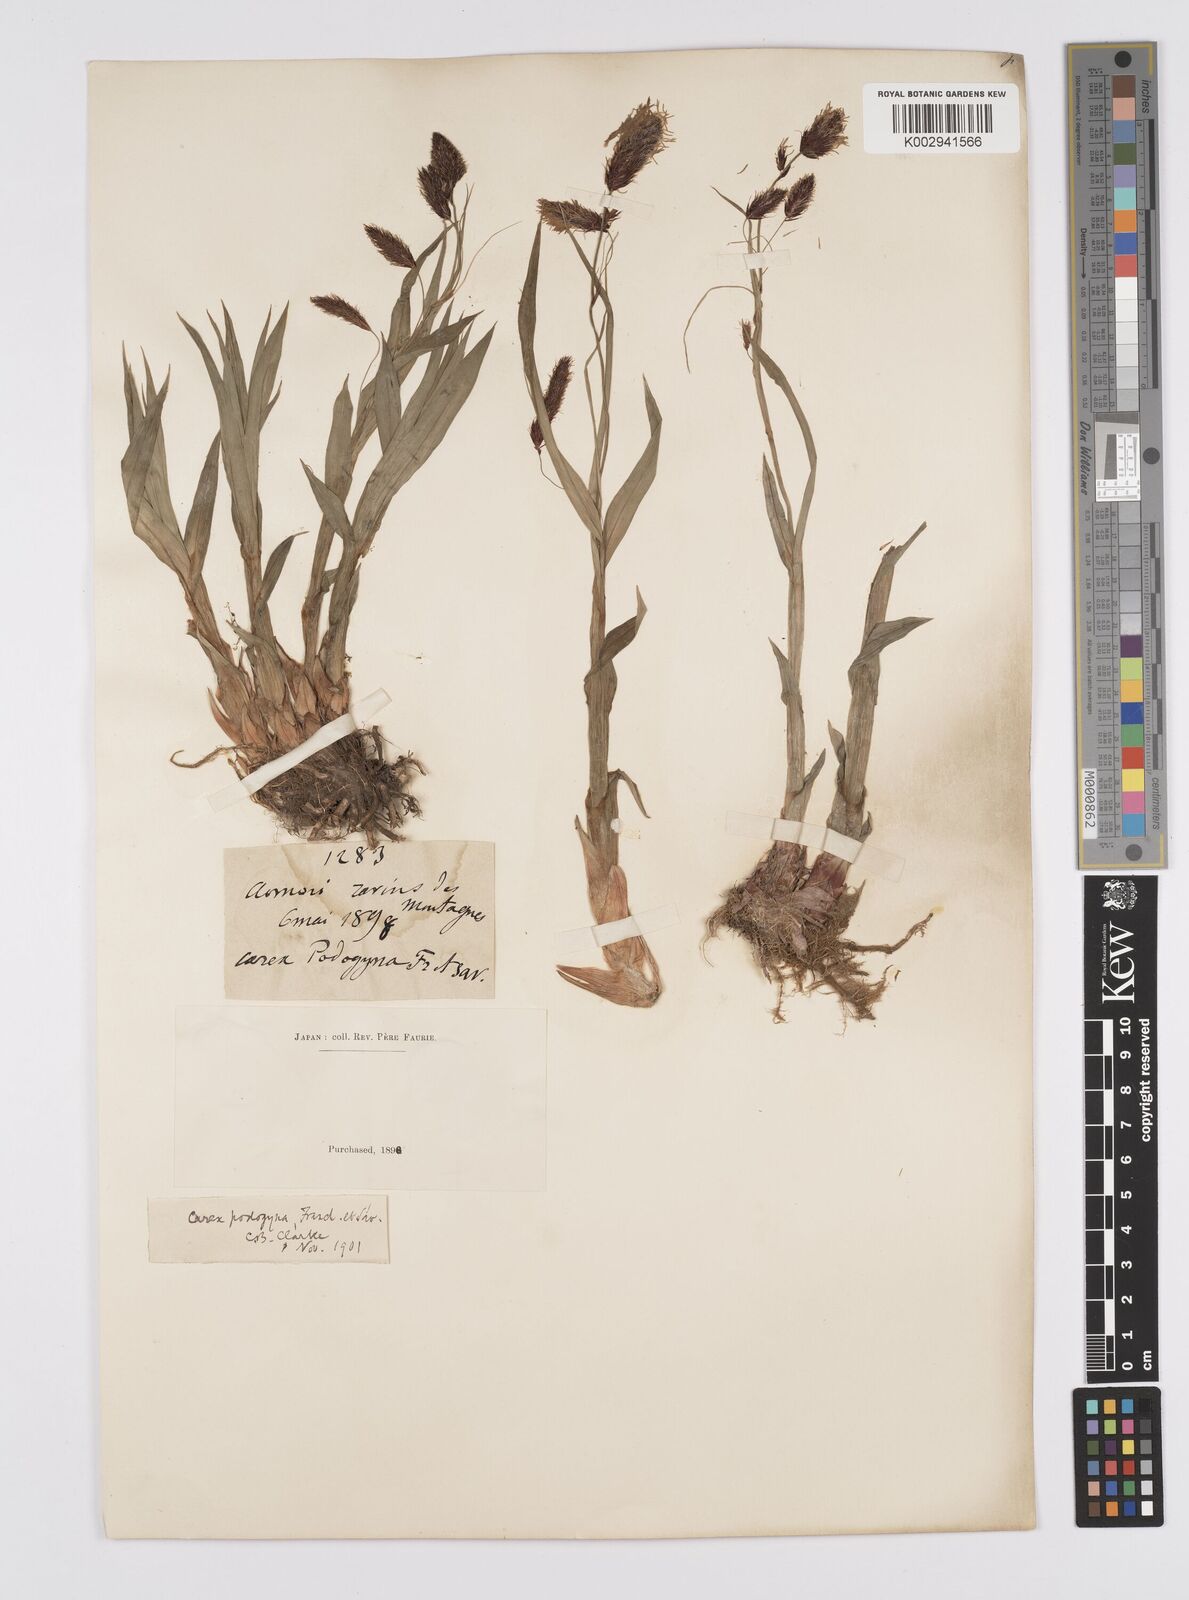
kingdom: Plantae
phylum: Tracheophyta
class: Liliopsida
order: Poales
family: Cyperaceae
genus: Carex
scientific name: Carex podogyna
